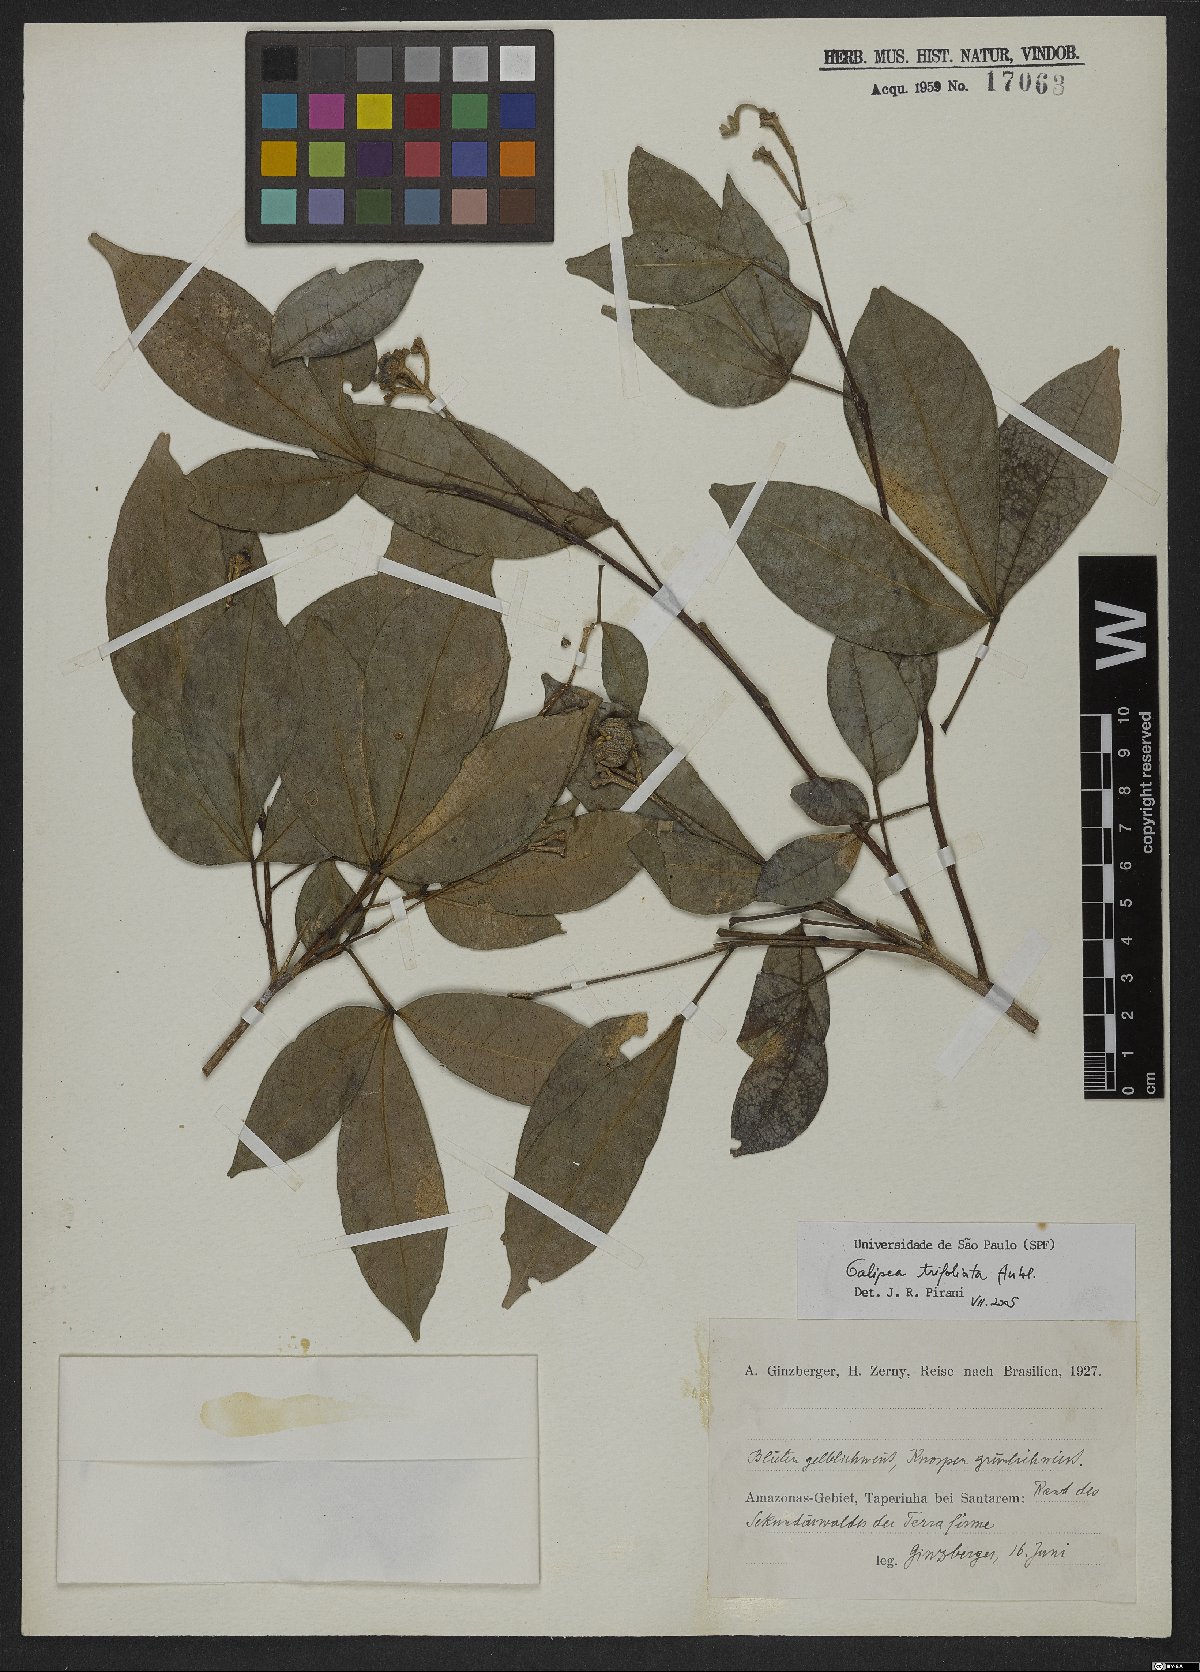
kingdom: Plantae
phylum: Tracheophyta
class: Magnoliopsida
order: Sapindales
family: Rutaceae
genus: Galipea
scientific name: Galipea trifoliata
